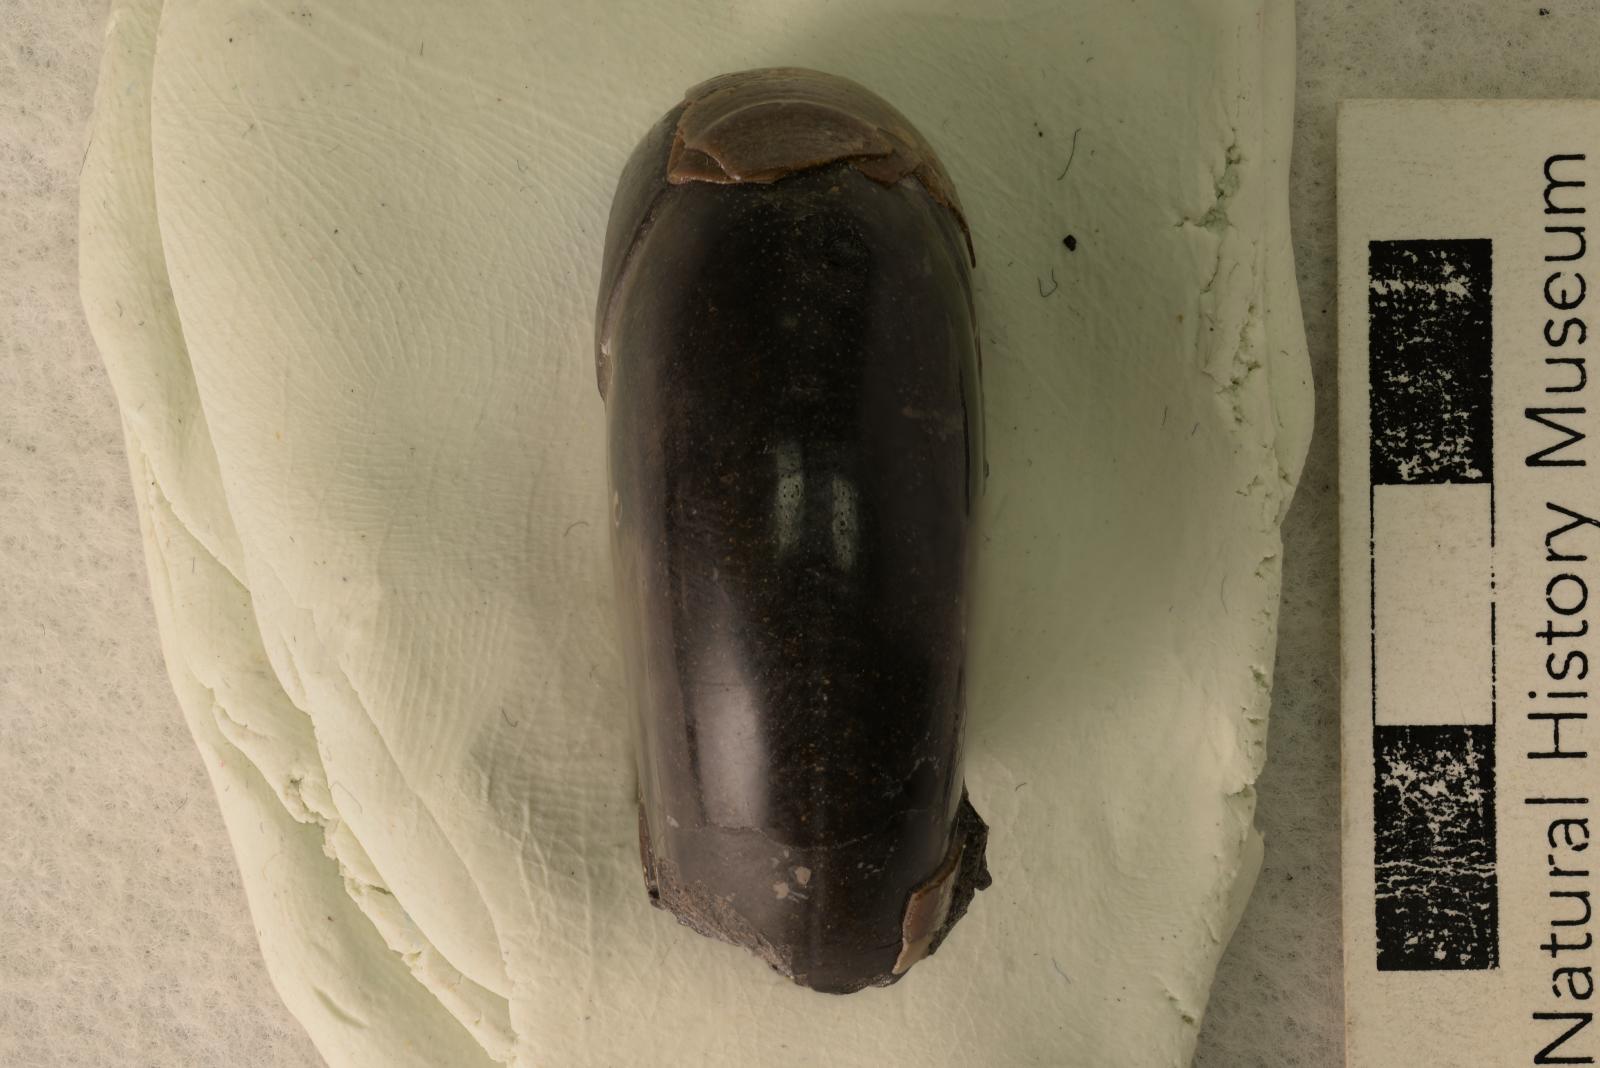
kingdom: Animalia
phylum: Mollusca
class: Cephalopoda
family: Desmoceratidae
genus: Desmoceras
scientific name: Desmoceras japonicum
